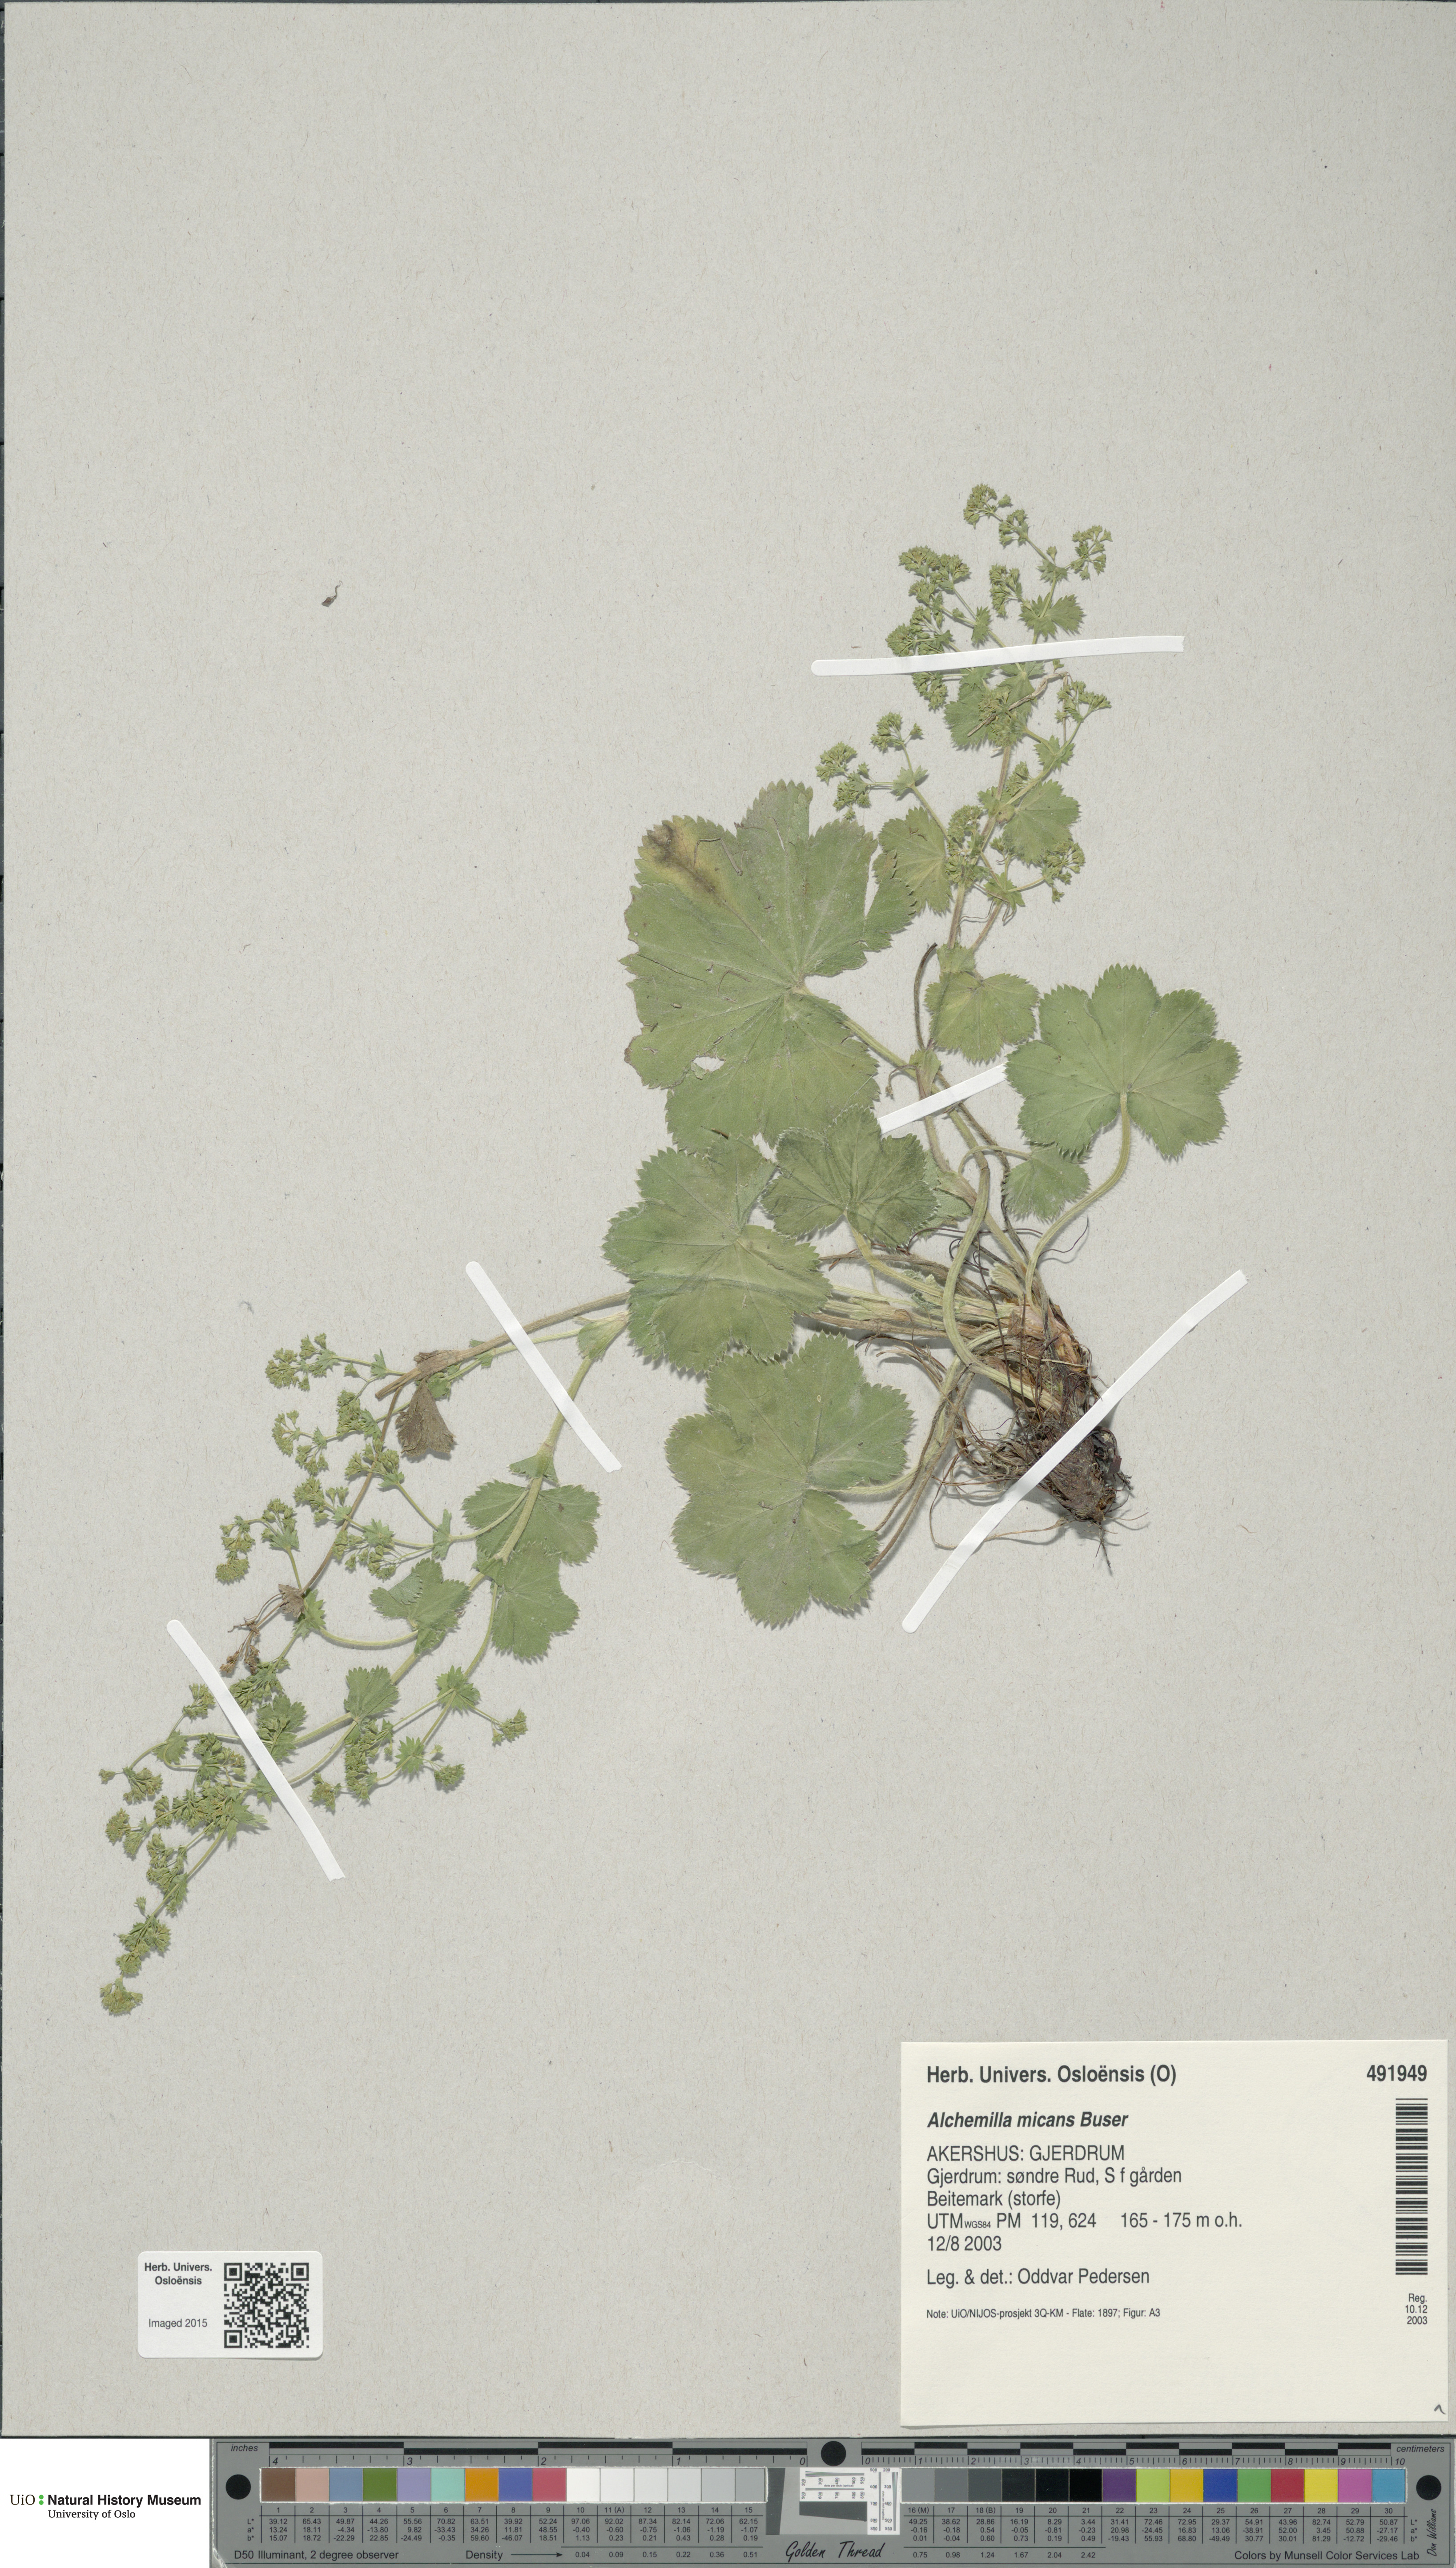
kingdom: Plantae
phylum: Tracheophyta
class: Magnoliopsida
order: Rosales
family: Rosaceae
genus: Alchemilla
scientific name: Alchemilla micans
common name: Gleaming lady's mantle
